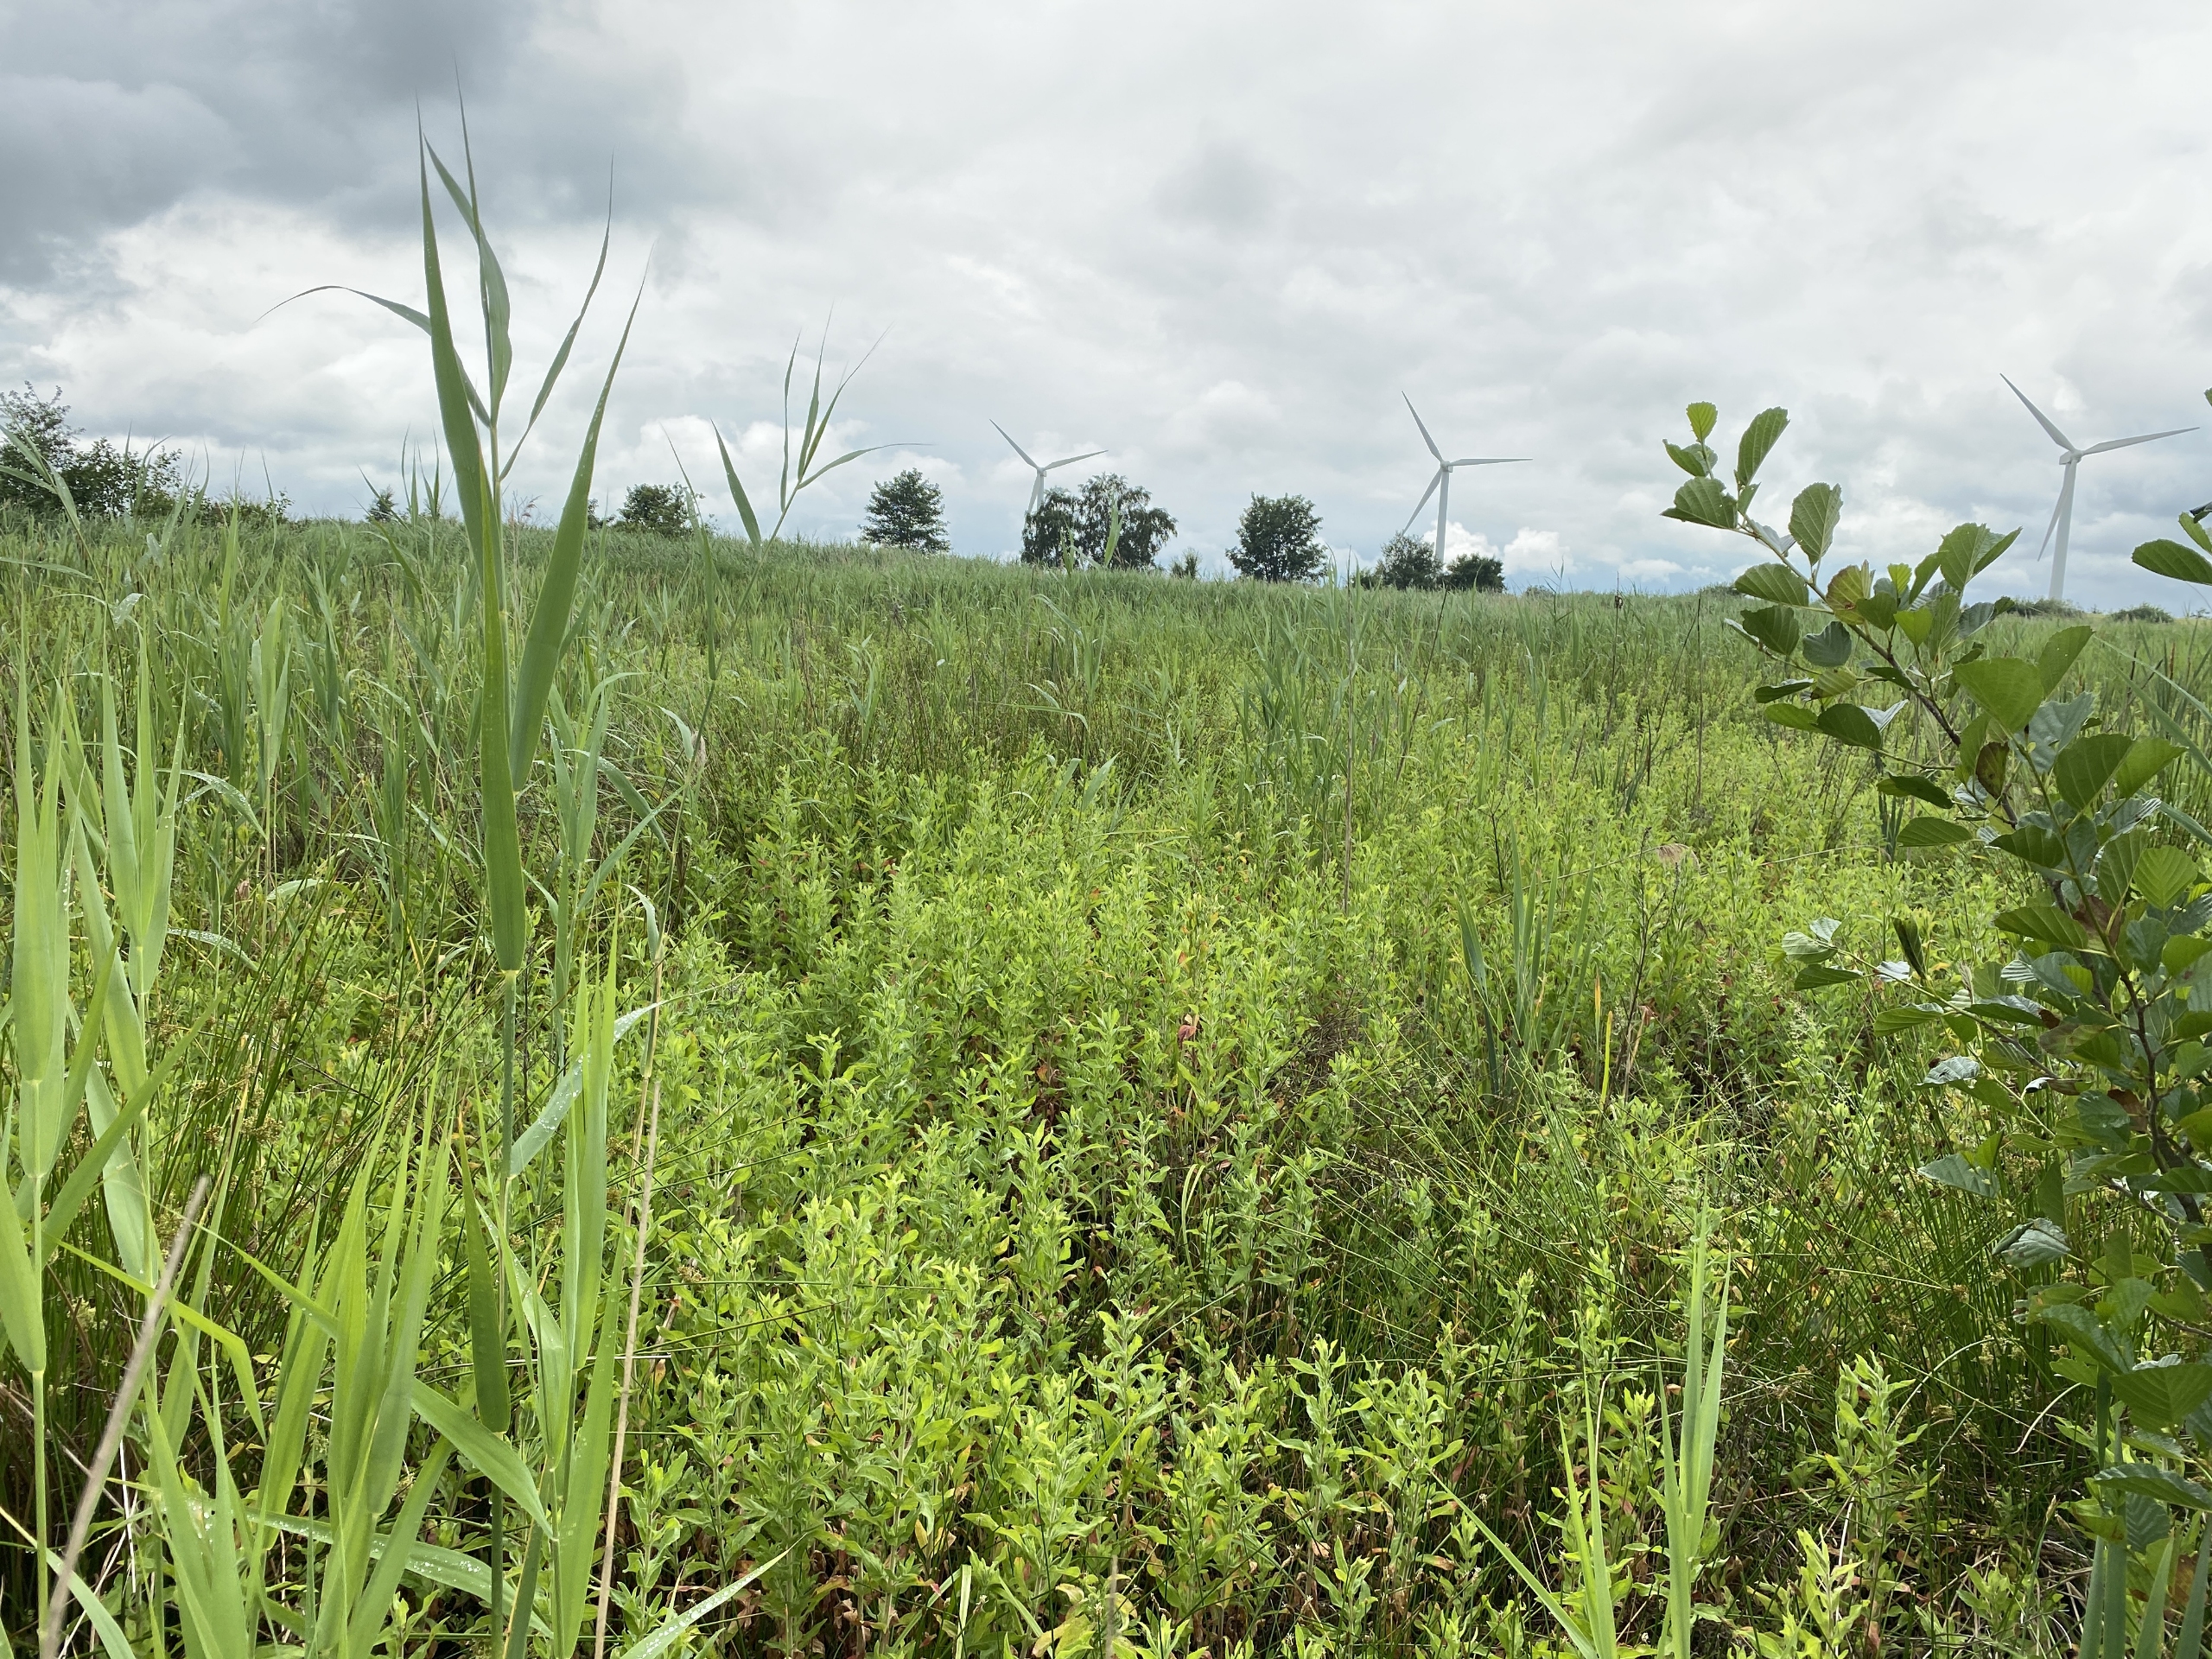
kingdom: Plantae
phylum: Tracheophyta
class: Magnoliopsida
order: Myrtales
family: Onagraceae
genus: Epilobium
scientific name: Epilobium hirsutum
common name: Lådden dueurt
